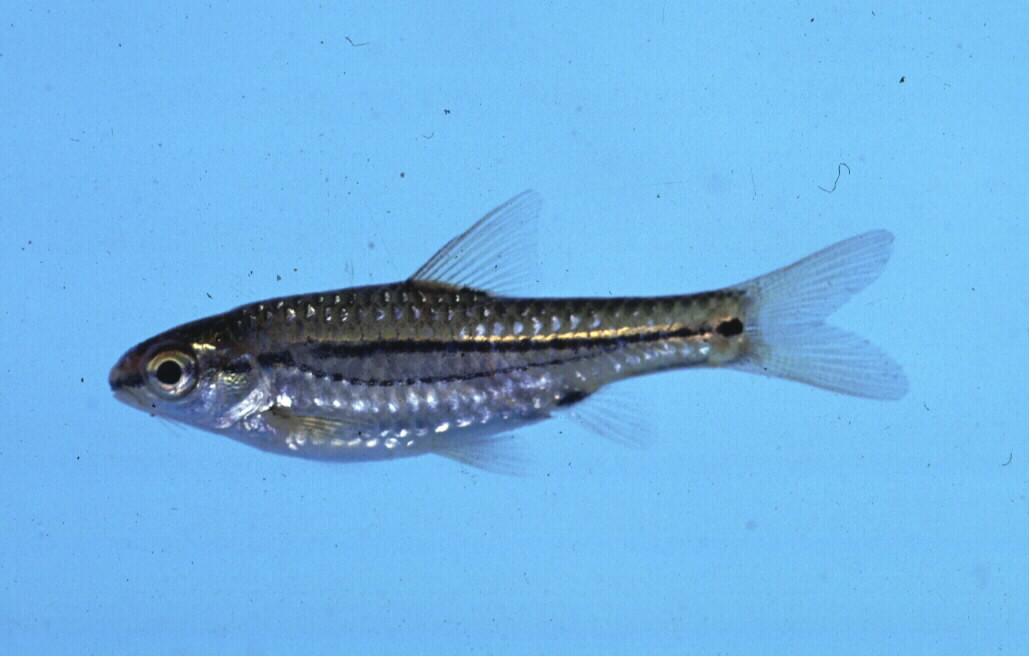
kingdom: Animalia
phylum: Chordata
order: Cypriniformes
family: Cyprinidae
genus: Enteromius
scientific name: Enteromius bifrenatus
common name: Hyphen barb
